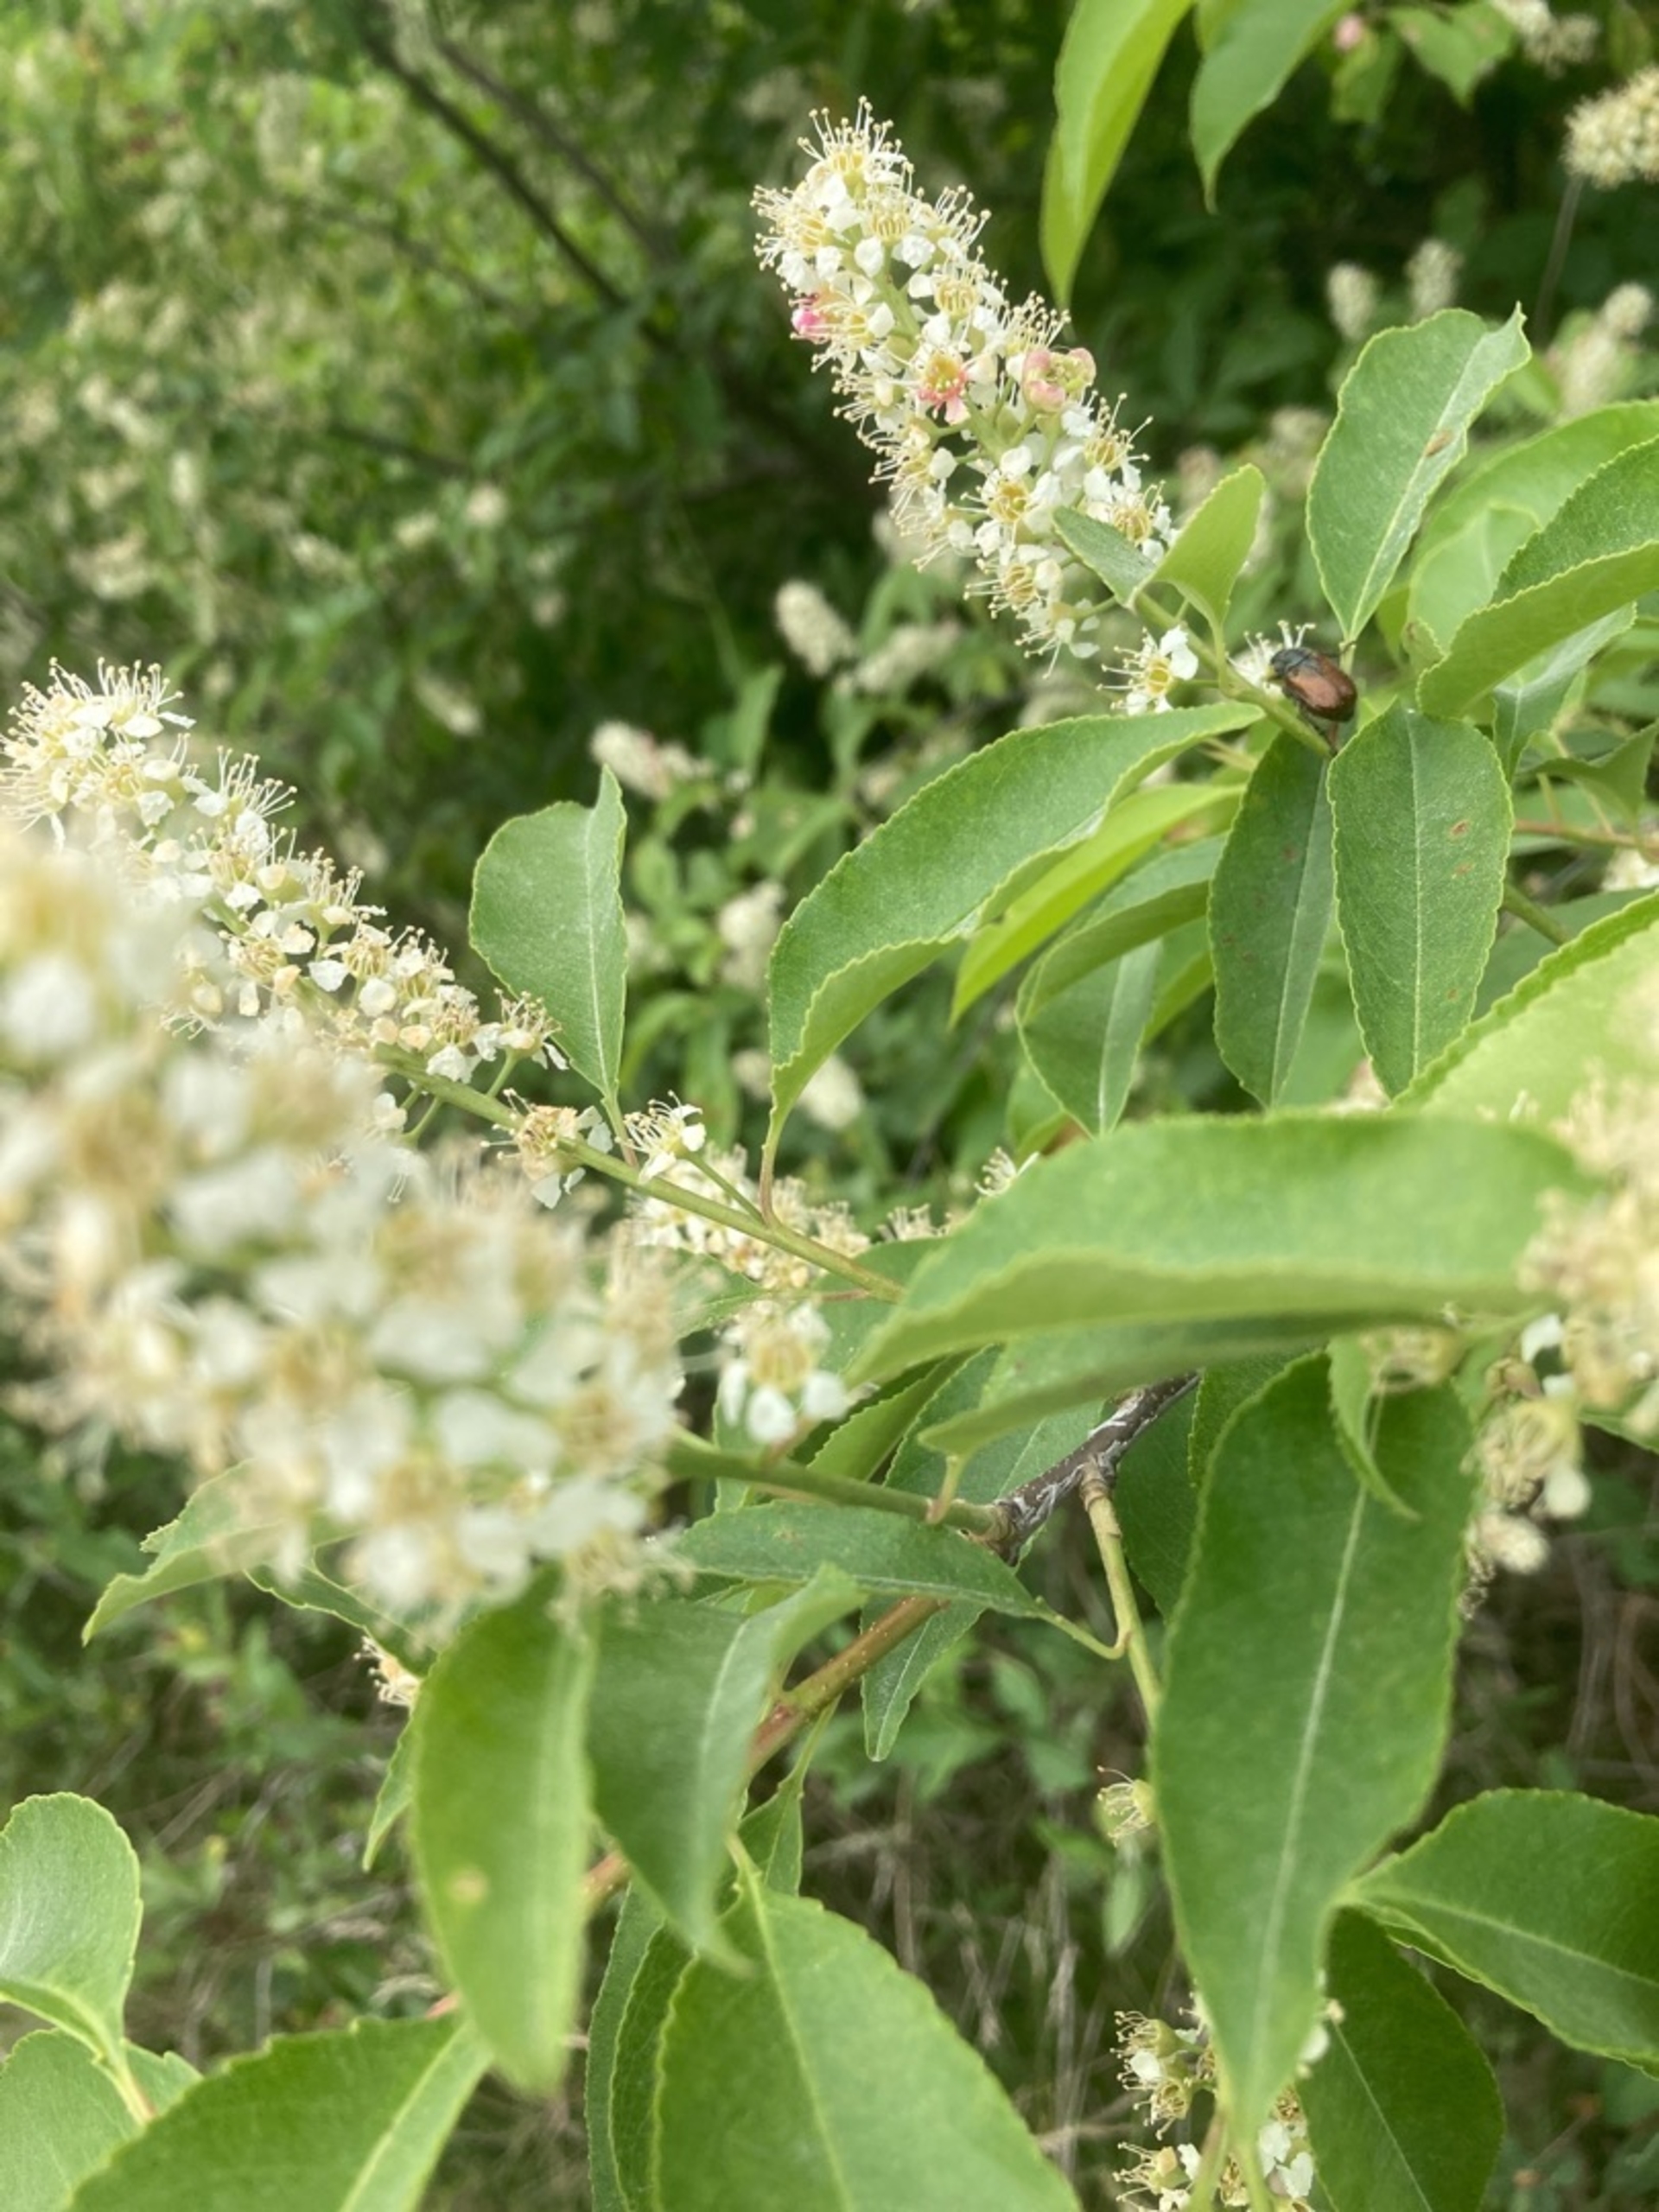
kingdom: Plantae
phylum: Tracheophyta
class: Magnoliopsida
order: Rosales
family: Rosaceae
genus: Prunus
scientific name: Prunus padus
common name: Almindelig hæg
